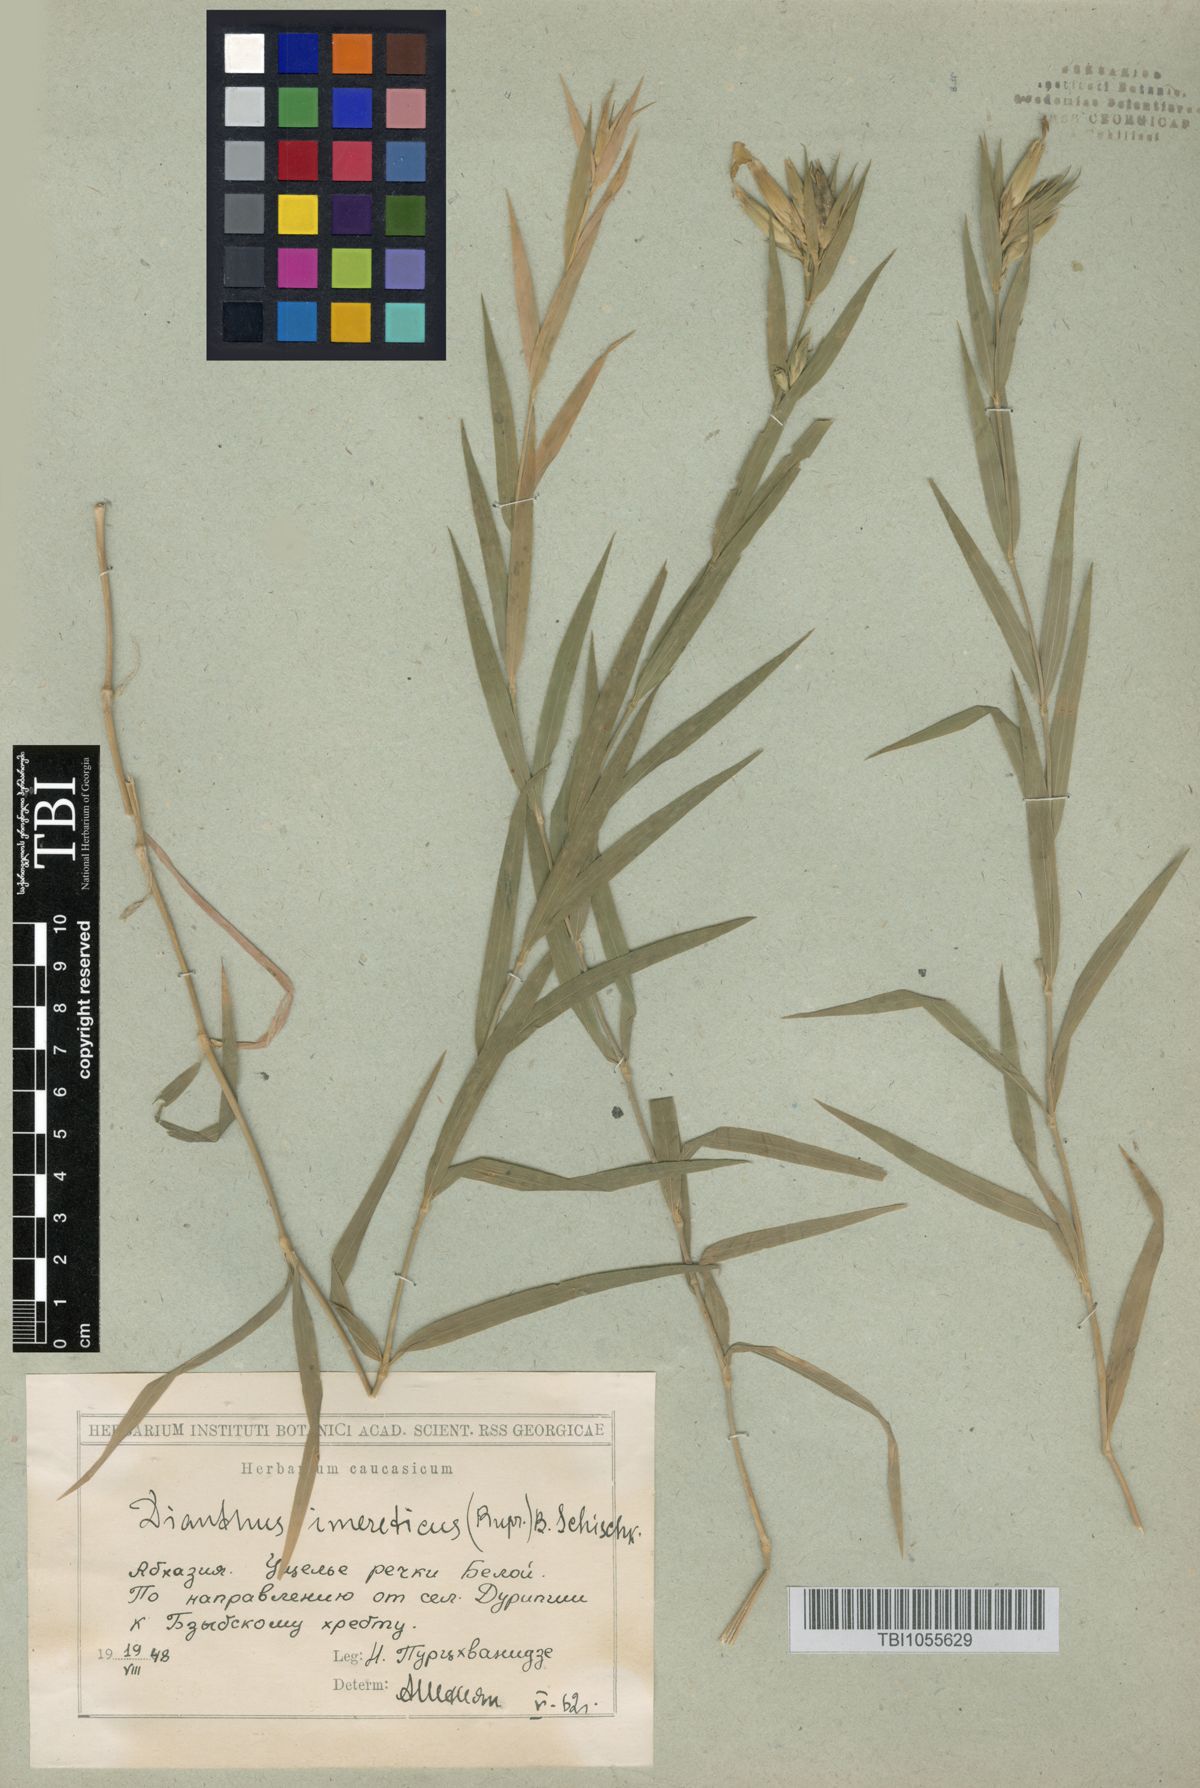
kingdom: Plantae
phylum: Tracheophyta
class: Magnoliopsida
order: Caryophyllales
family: Caryophyllaceae
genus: Dianthus
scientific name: Dianthus imereticus
